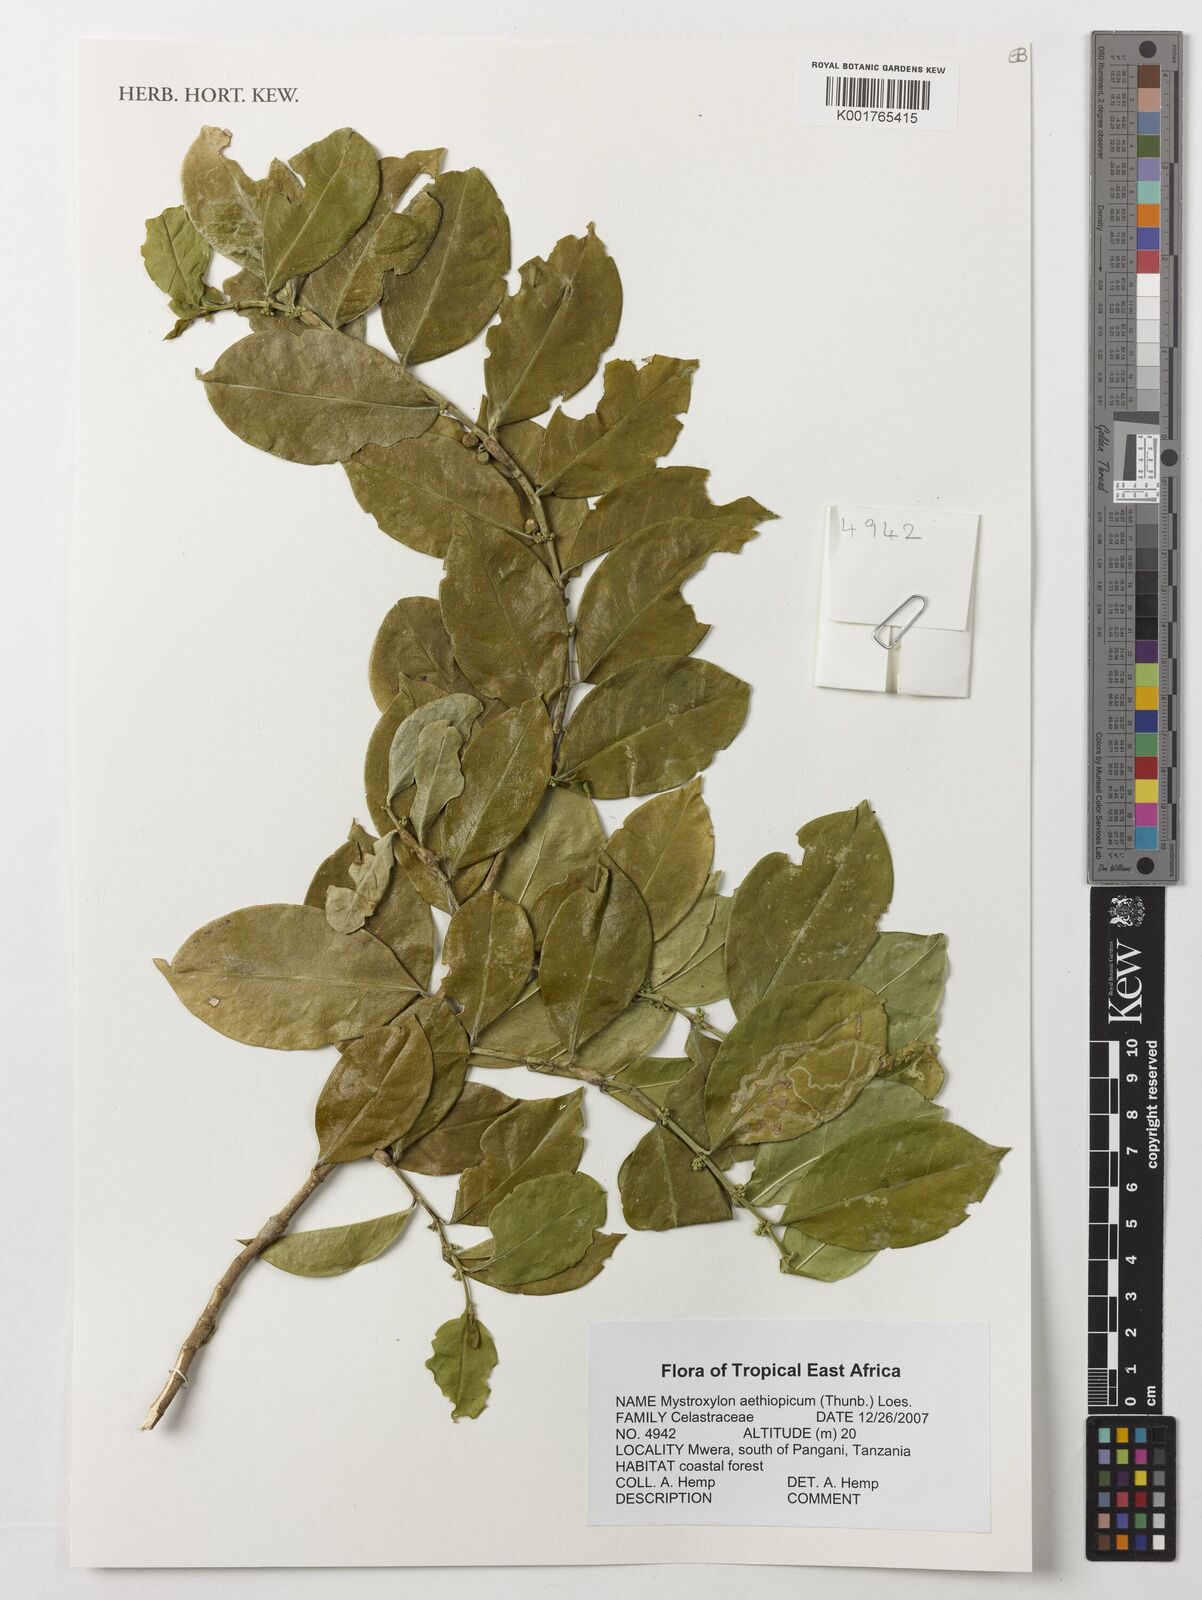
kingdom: Plantae
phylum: Tracheophyta
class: Magnoliopsida
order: Celastrales
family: Celastraceae
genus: Mystroxylon
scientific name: Mystroxylon aethiopicum
